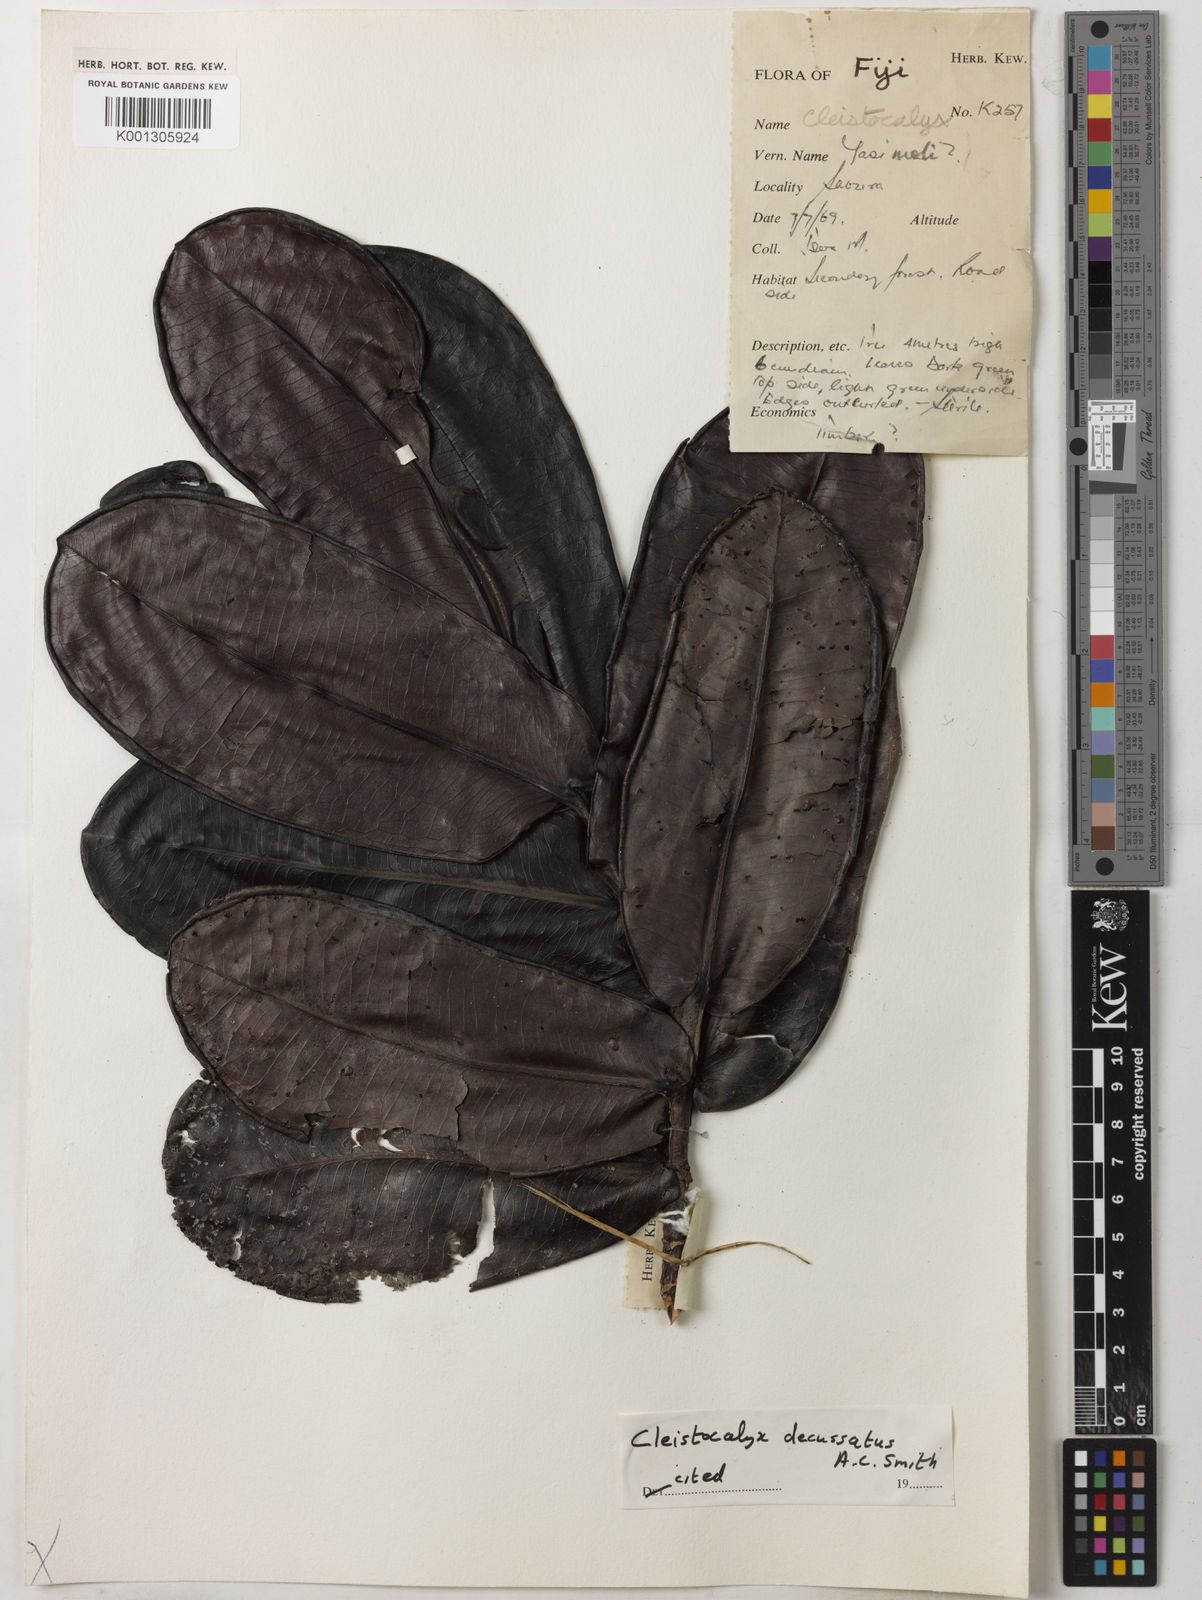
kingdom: Plantae
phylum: Tracheophyta
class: Magnoliopsida
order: Myrtales
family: Myrtaceae
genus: Syzygium
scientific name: Syzygium
